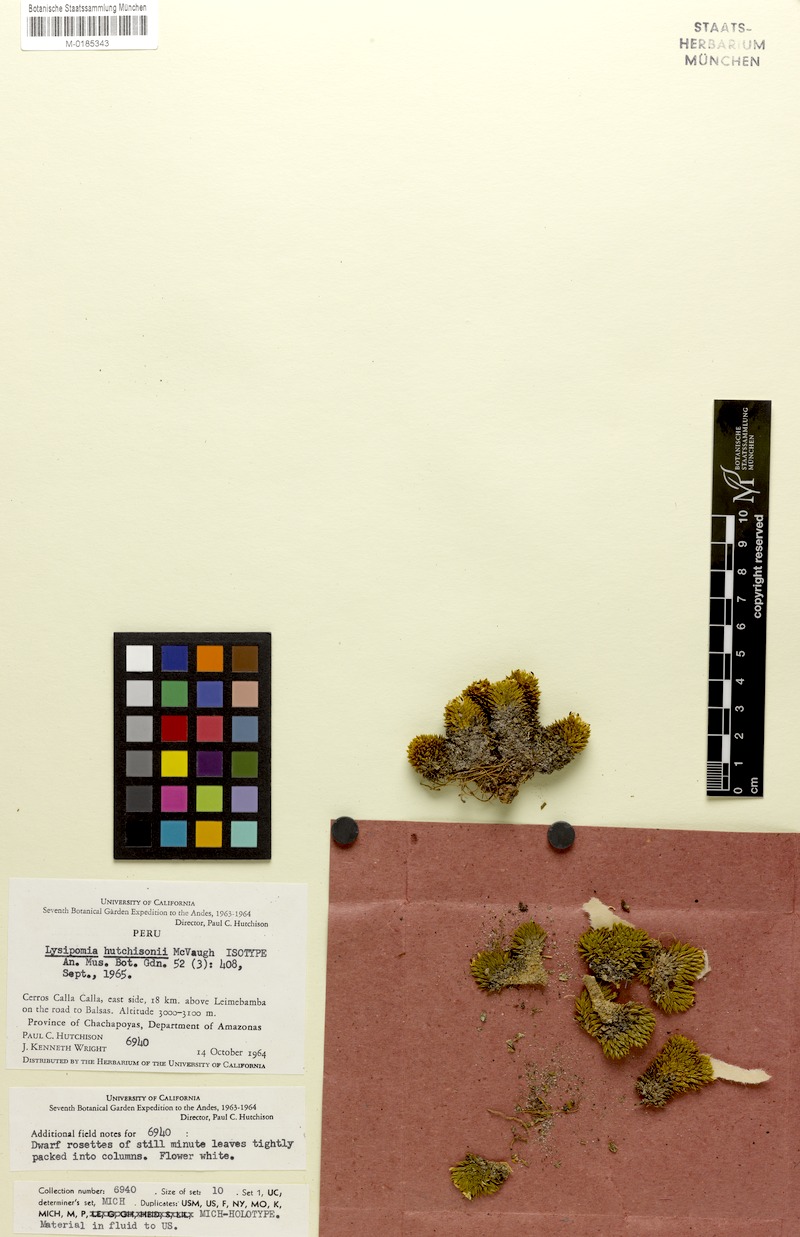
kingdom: Plantae
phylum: Tracheophyta
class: Magnoliopsida
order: Asterales
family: Campanulaceae
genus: Lysipomia
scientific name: Lysipomia hutchisonii
